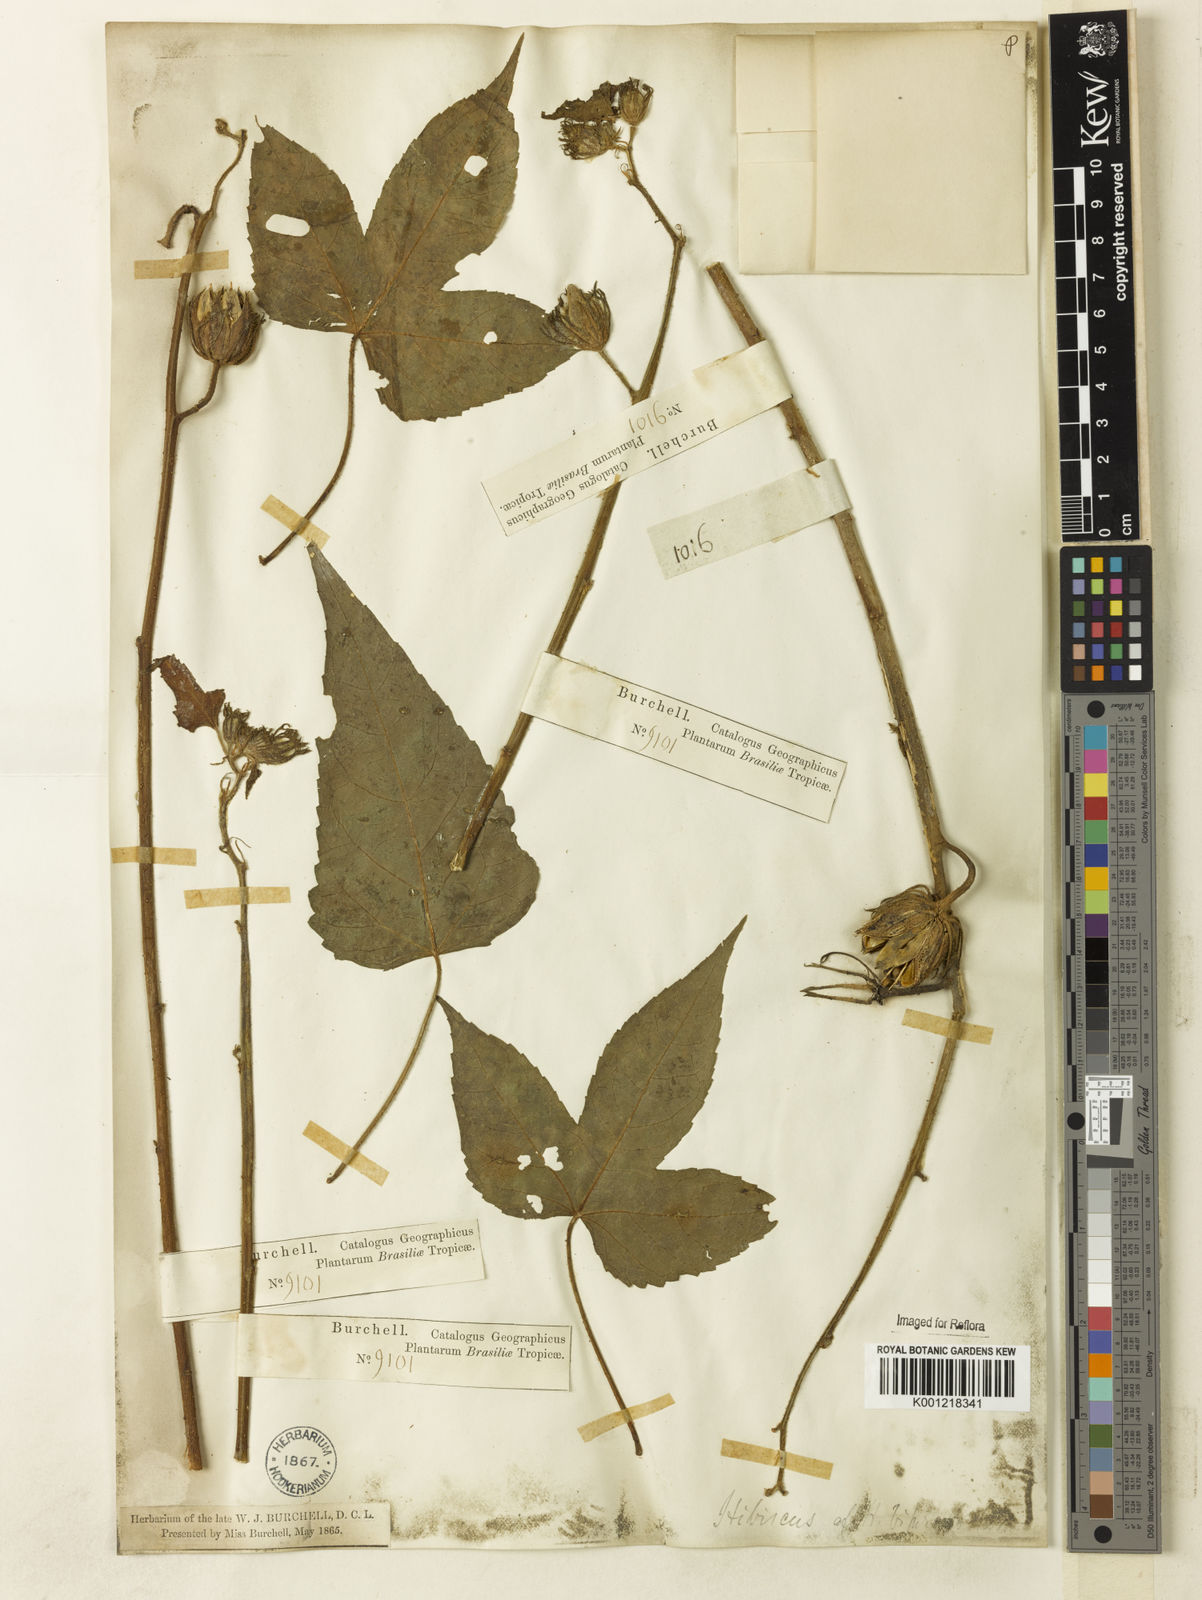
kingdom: Plantae
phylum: Tracheophyta
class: Magnoliopsida
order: Malvales
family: Malvaceae
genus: Hibiscus
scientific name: Hibiscus bifurcatus
